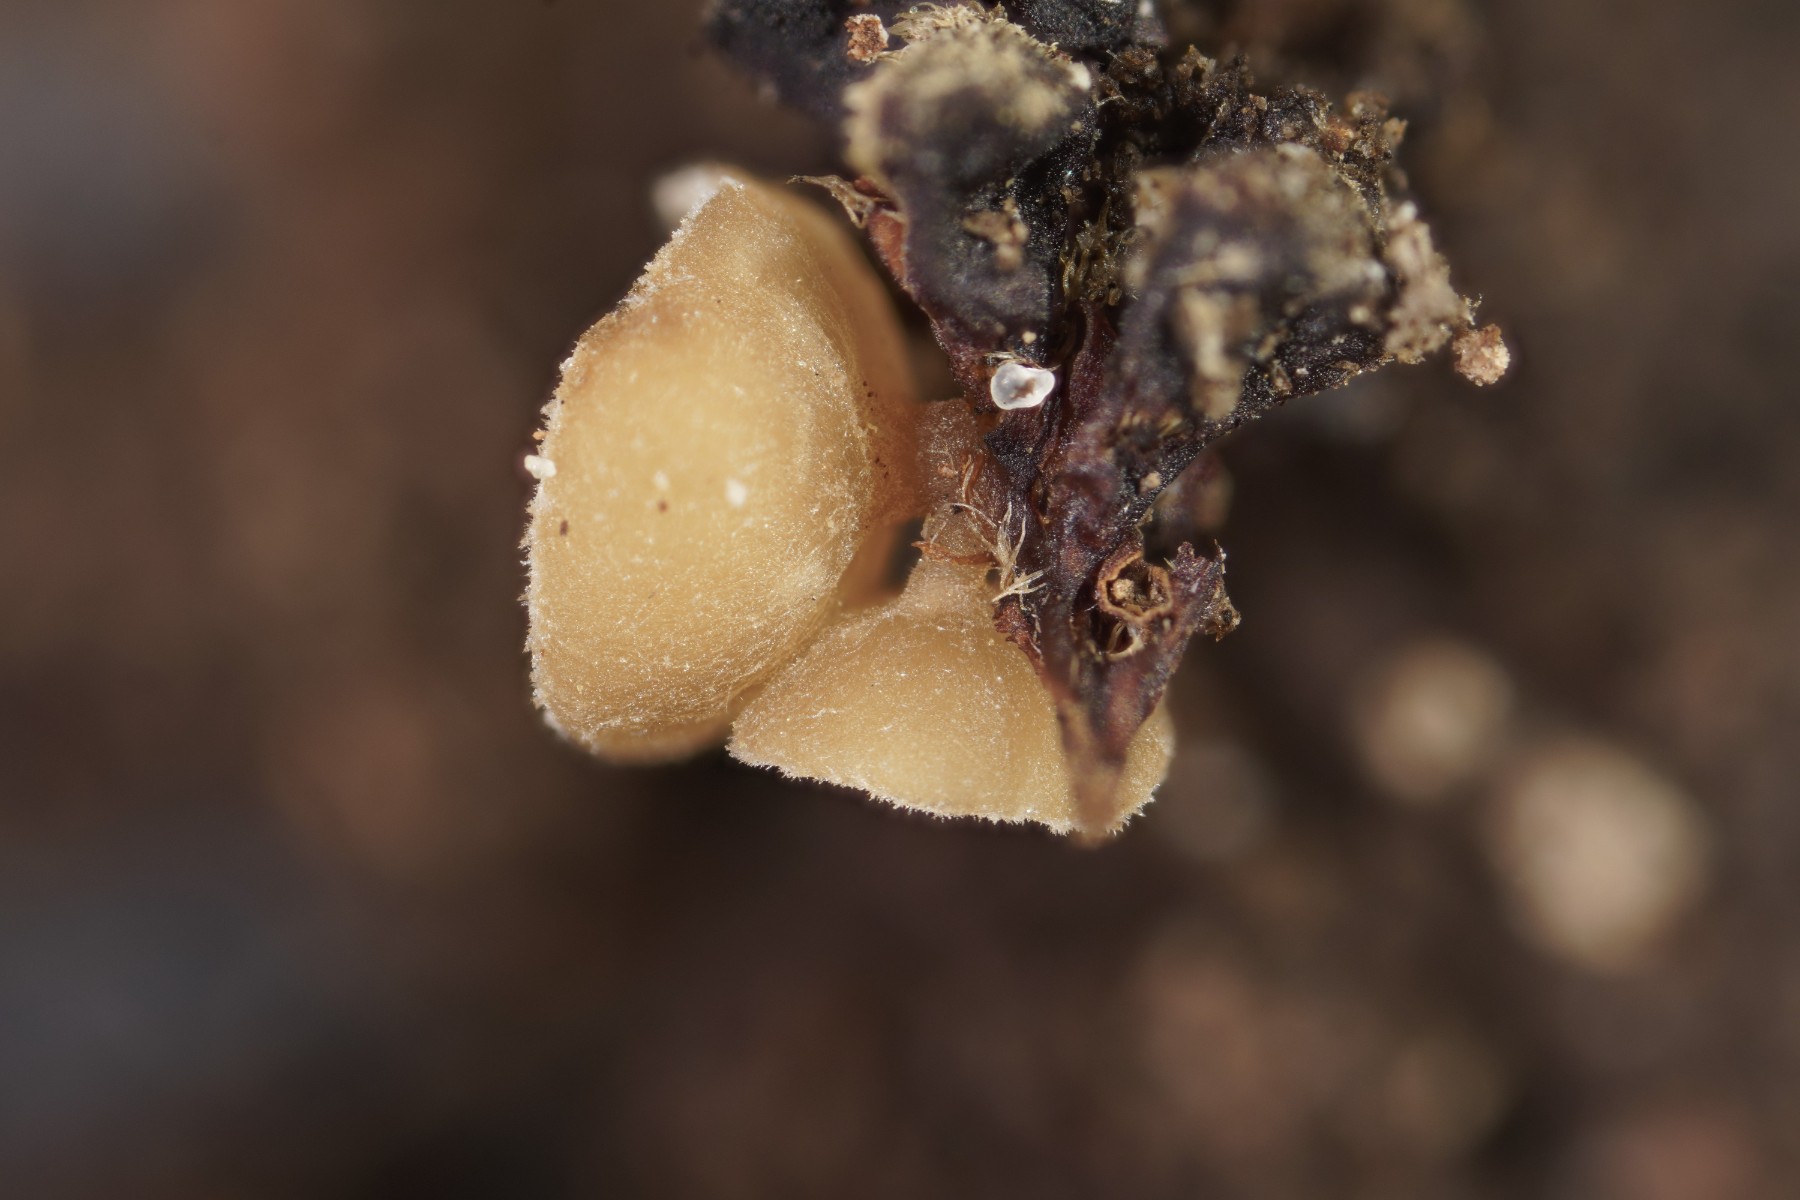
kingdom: Fungi
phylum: Ascomycota
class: Leotiomycetes
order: Helotiales
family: Sclerotiniaceae
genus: Ciboria
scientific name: Ciboria amentacea
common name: ellerakle-knoldskive
